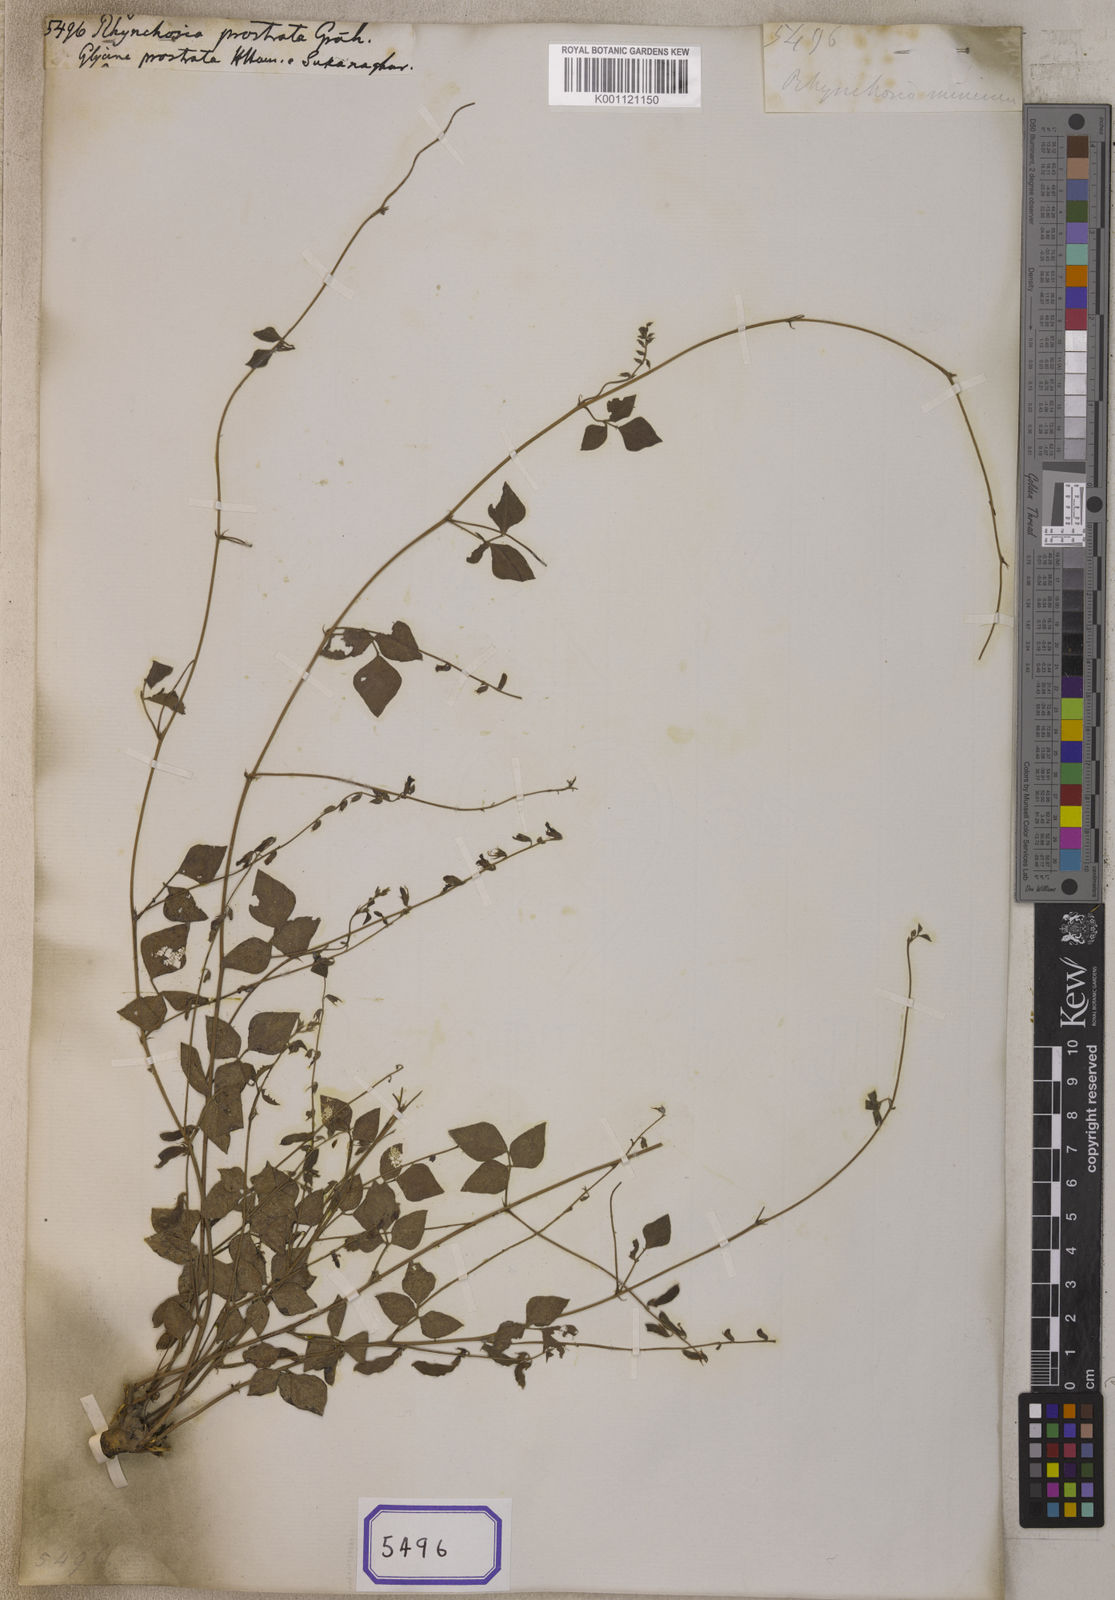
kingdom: Plantae
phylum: Tracheophyta
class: Magnoliopsida
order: Fabales
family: Fabaceae
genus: Rhynchosia
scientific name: Rhynchosia minima
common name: Least snoutbean
